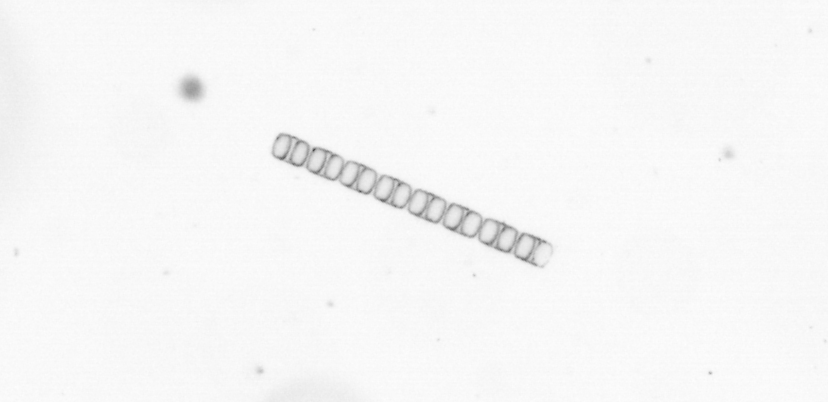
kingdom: Chromista
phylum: Ochrophyta
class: Bacillariophyceae
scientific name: Bacillariophyceae
